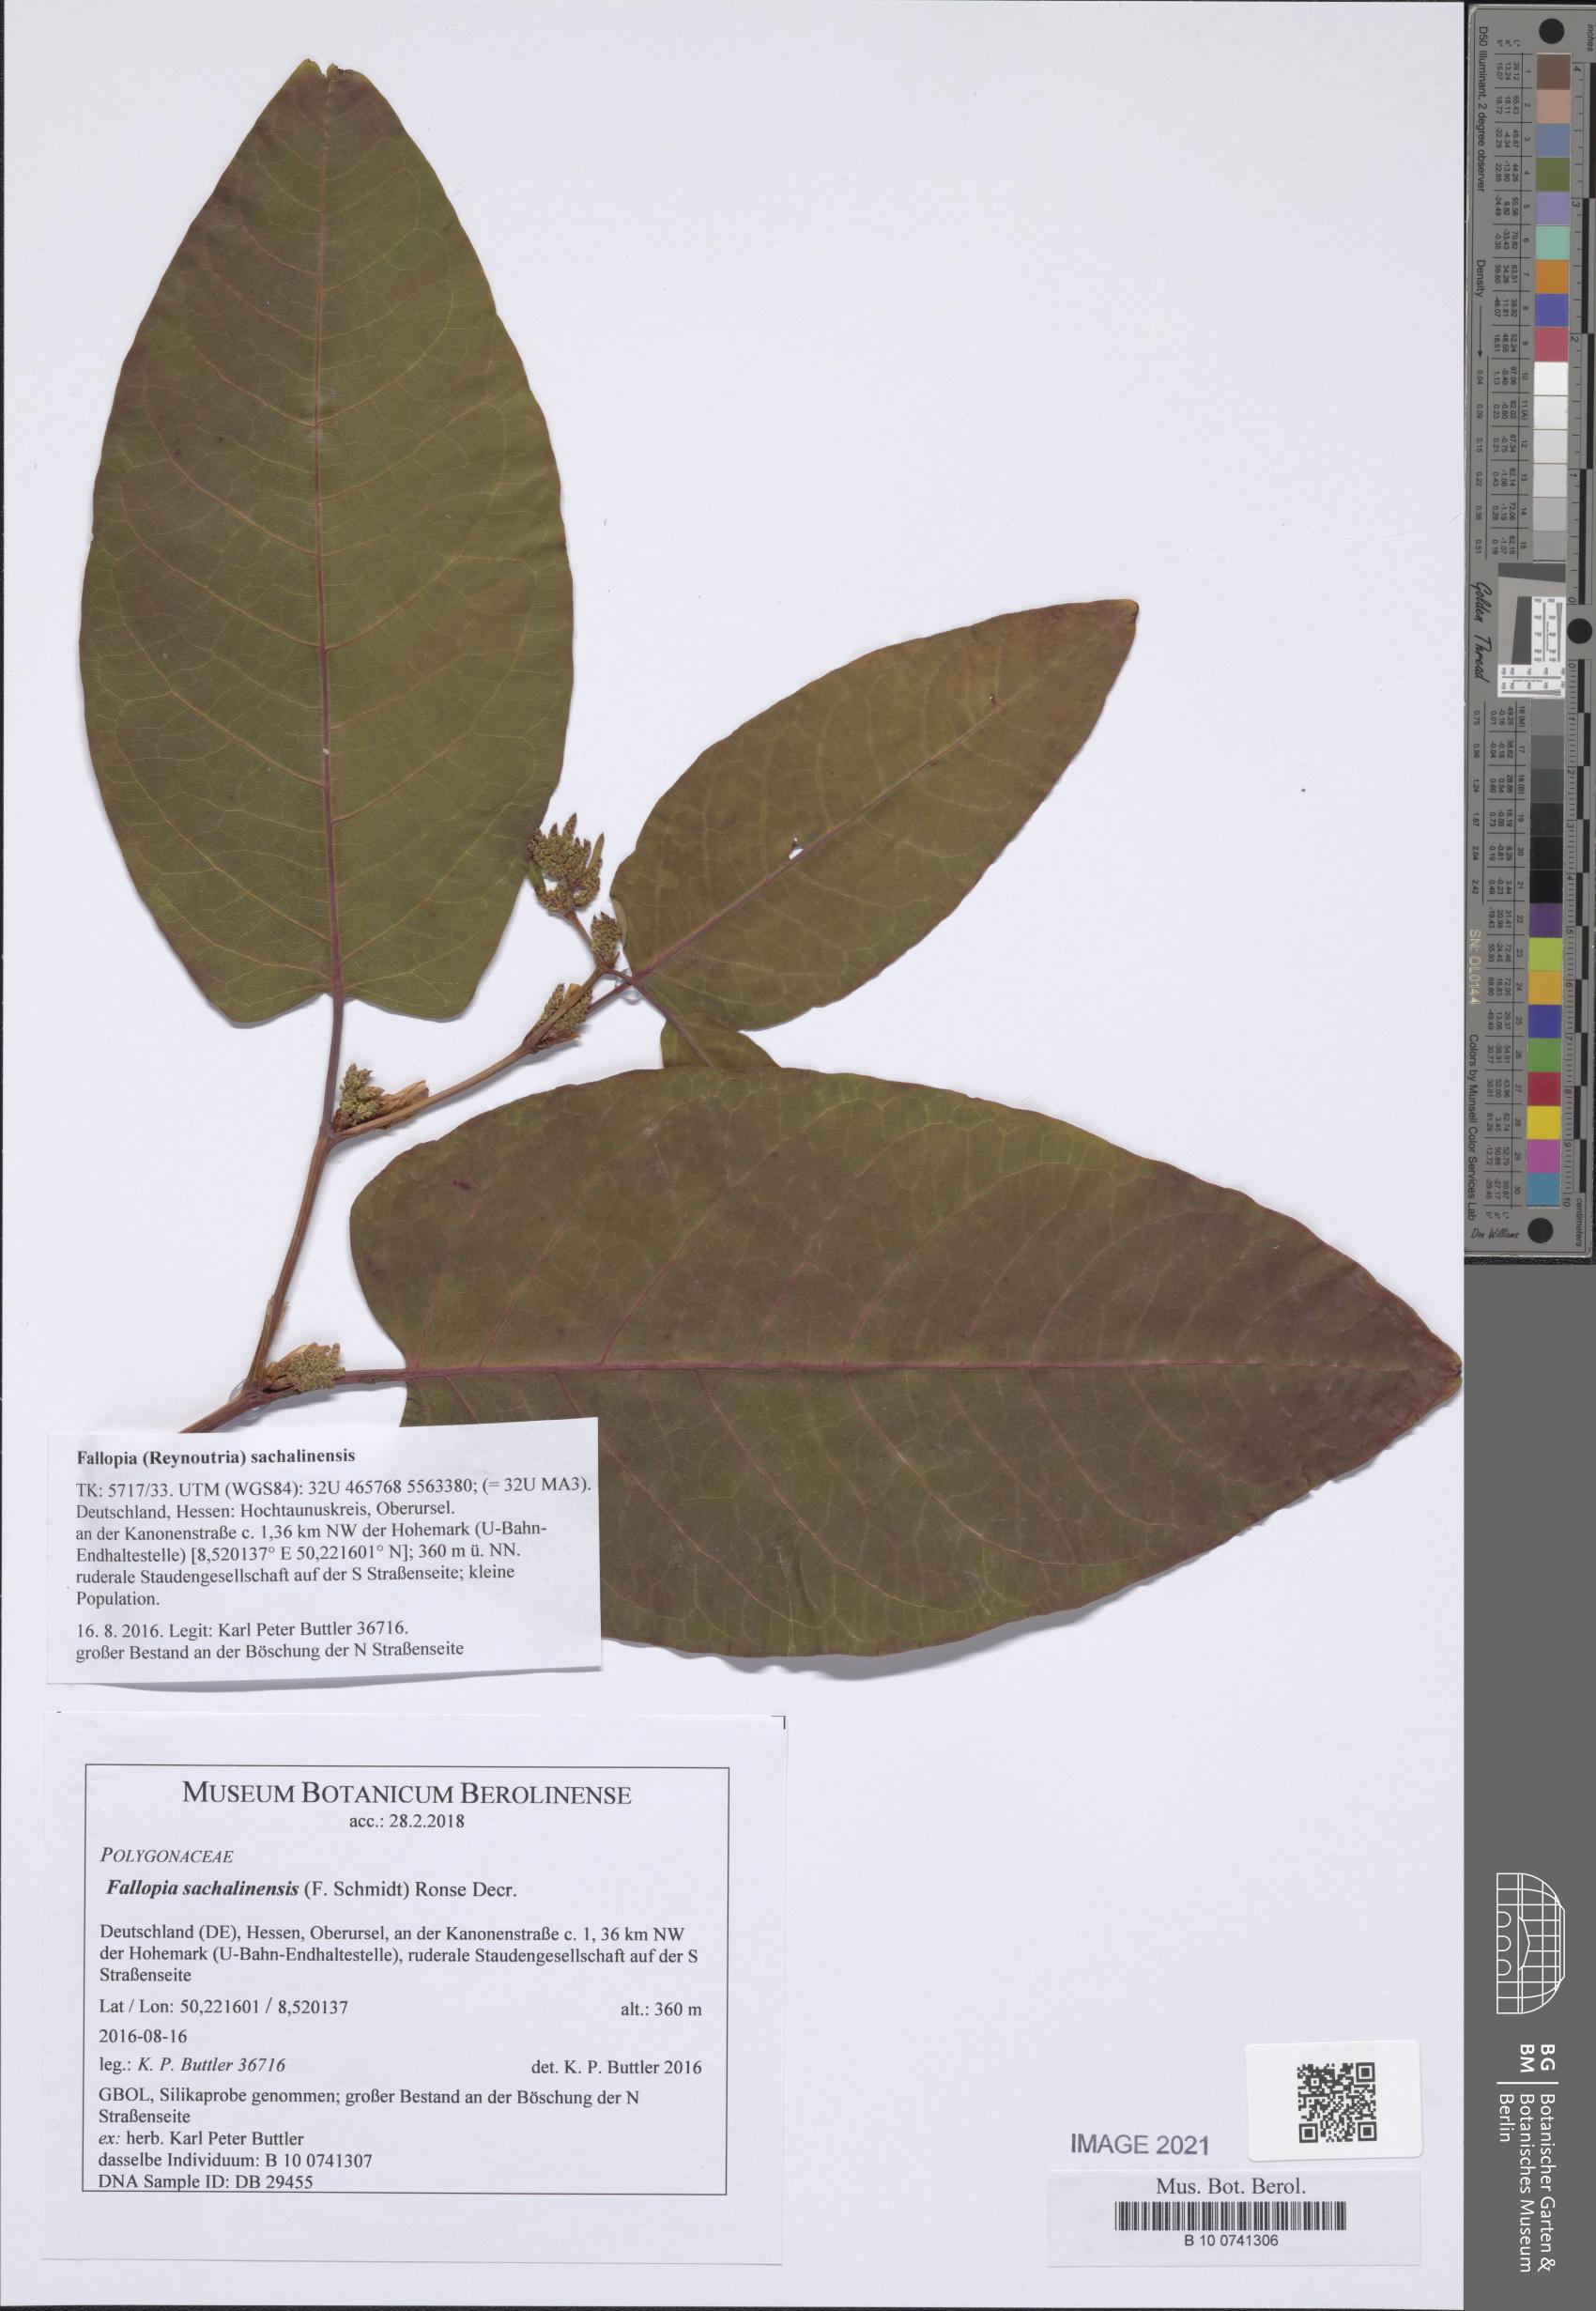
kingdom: Plantae
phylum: Tracheophyta
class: Magnoliopsida
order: Caryophyllales
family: Polygonaceae
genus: Reynoutria
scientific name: Reynoutria sachalinensis
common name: Giant knotweed
